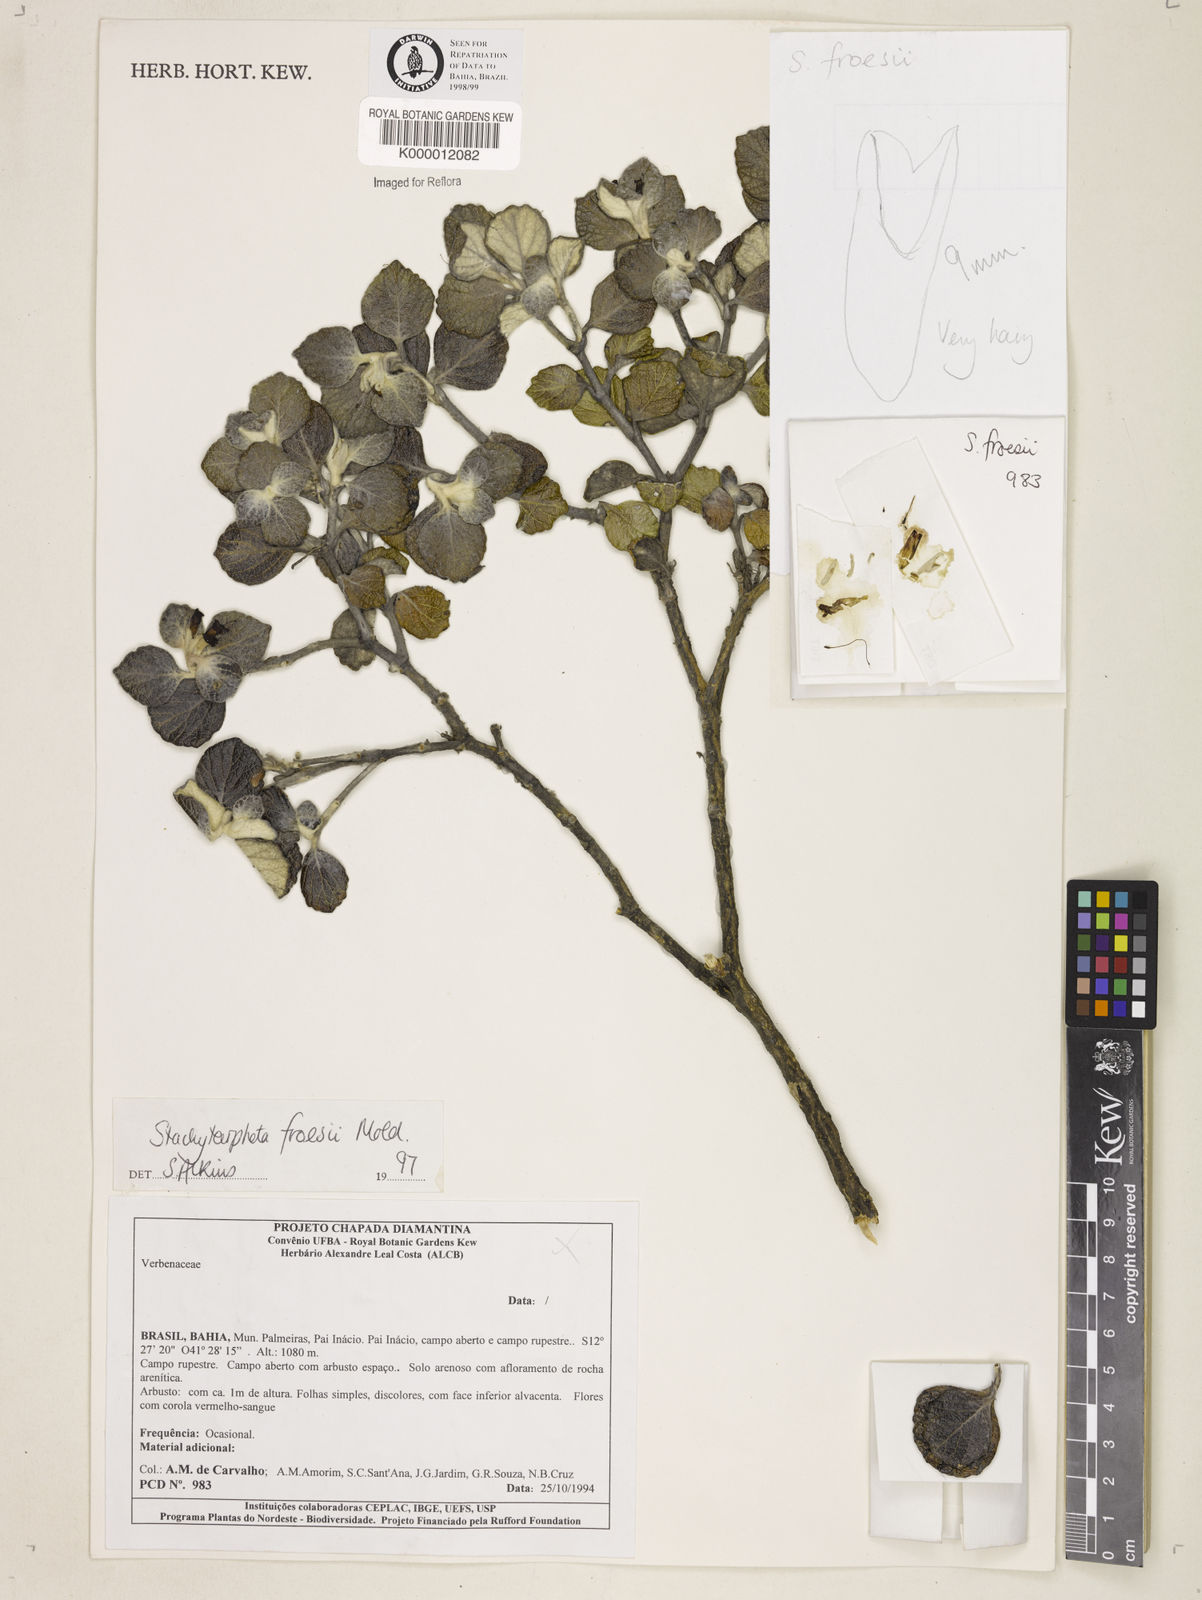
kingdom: Plantae
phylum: Tracheophyta
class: Magnoliopsida
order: Lamiales
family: Verbenaceae
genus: Stachytarpheta
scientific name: Stachytarpheta froesii
